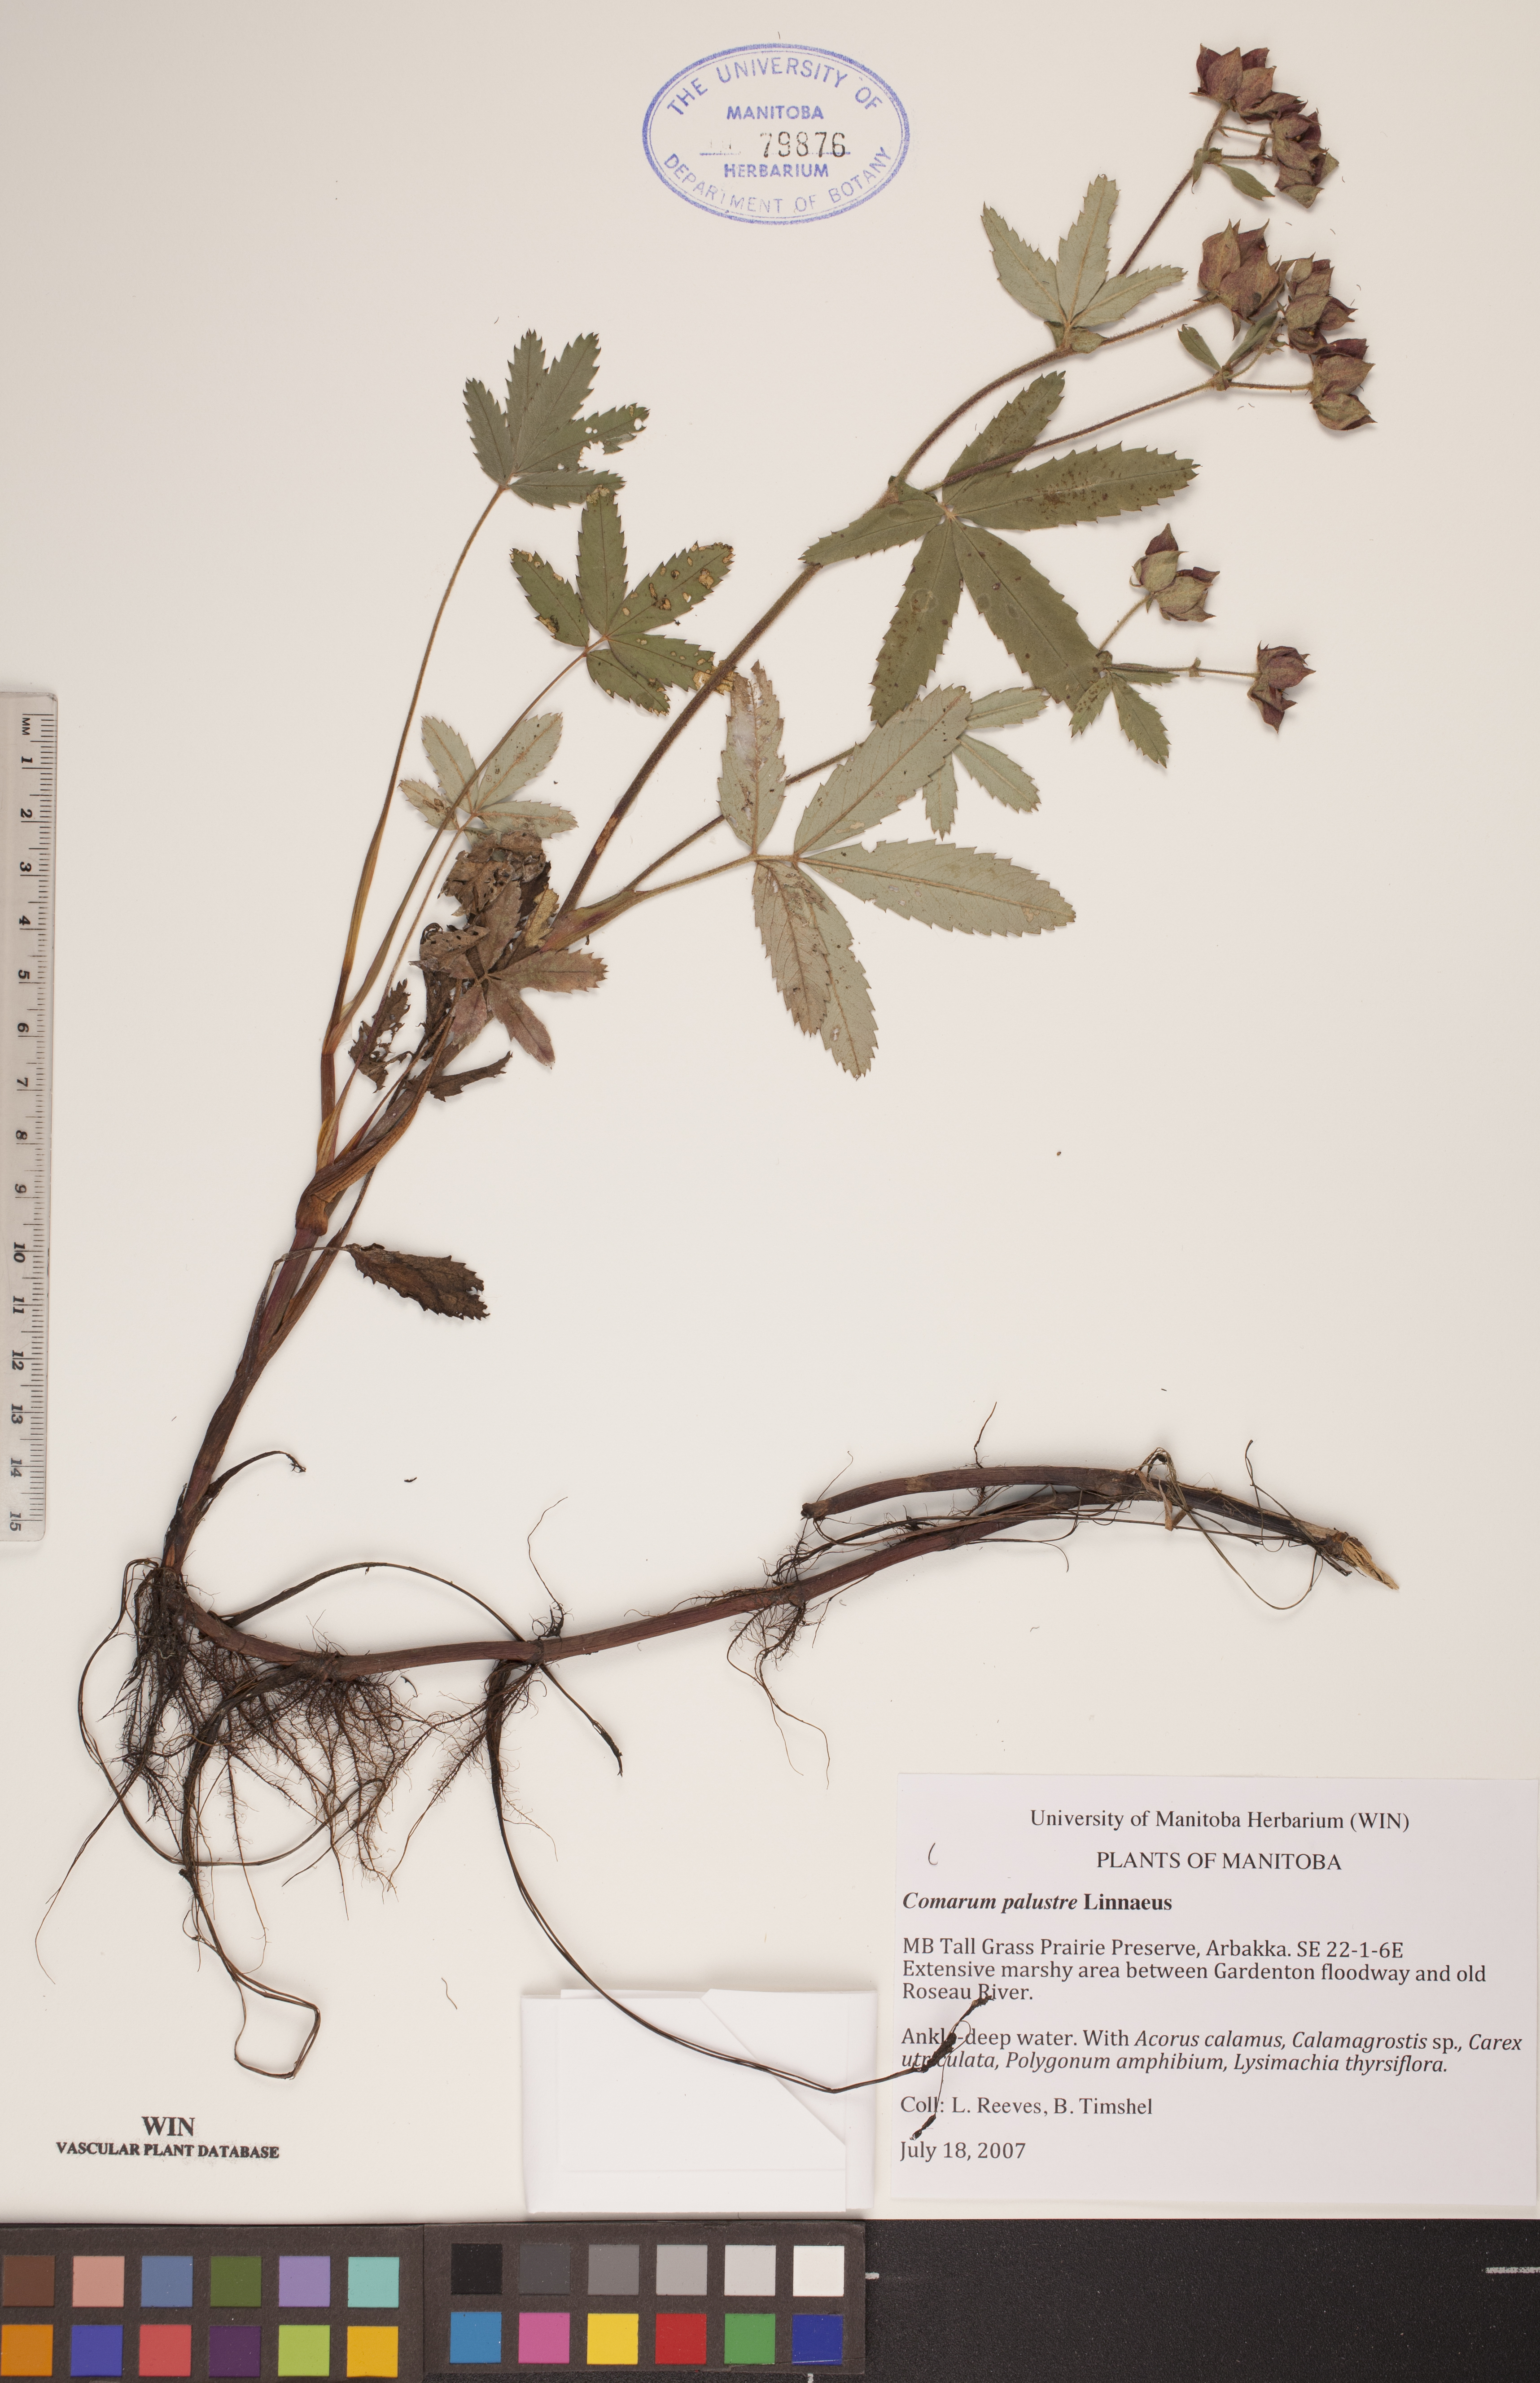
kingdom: Plantae
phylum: Tracheophyta
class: Magnoliopsida
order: Rosales
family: Rosaceae
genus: Comarum
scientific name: Comarum palustre
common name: Marsh cinquefoil
